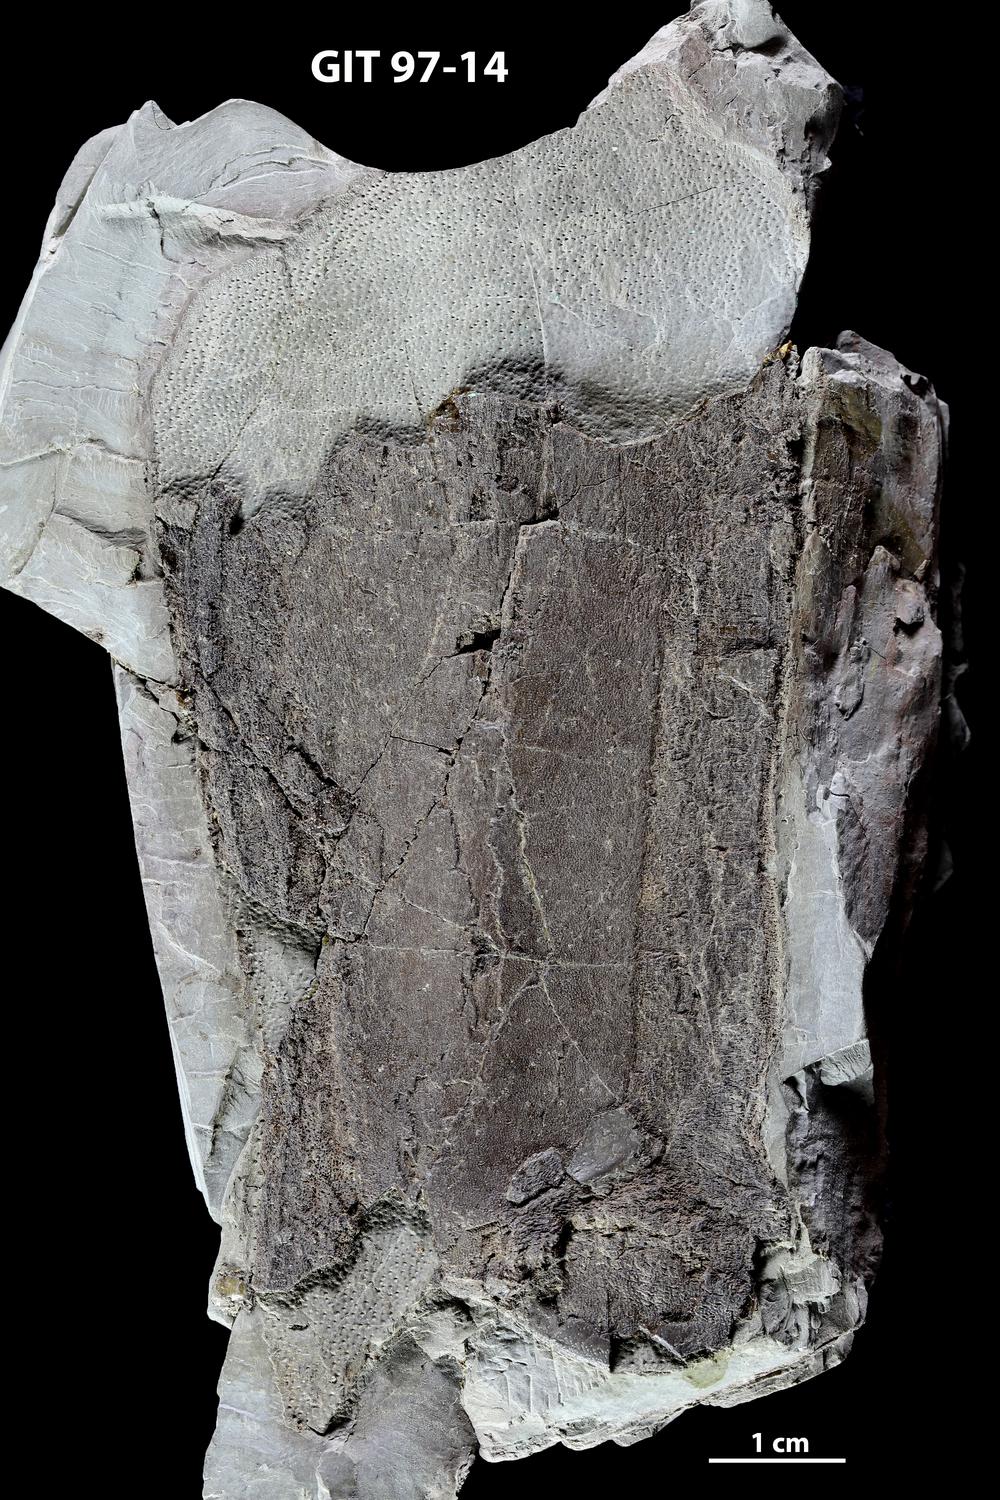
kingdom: Animalia
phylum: Chordata
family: Holonematidae
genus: Holonema
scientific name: Holonema
